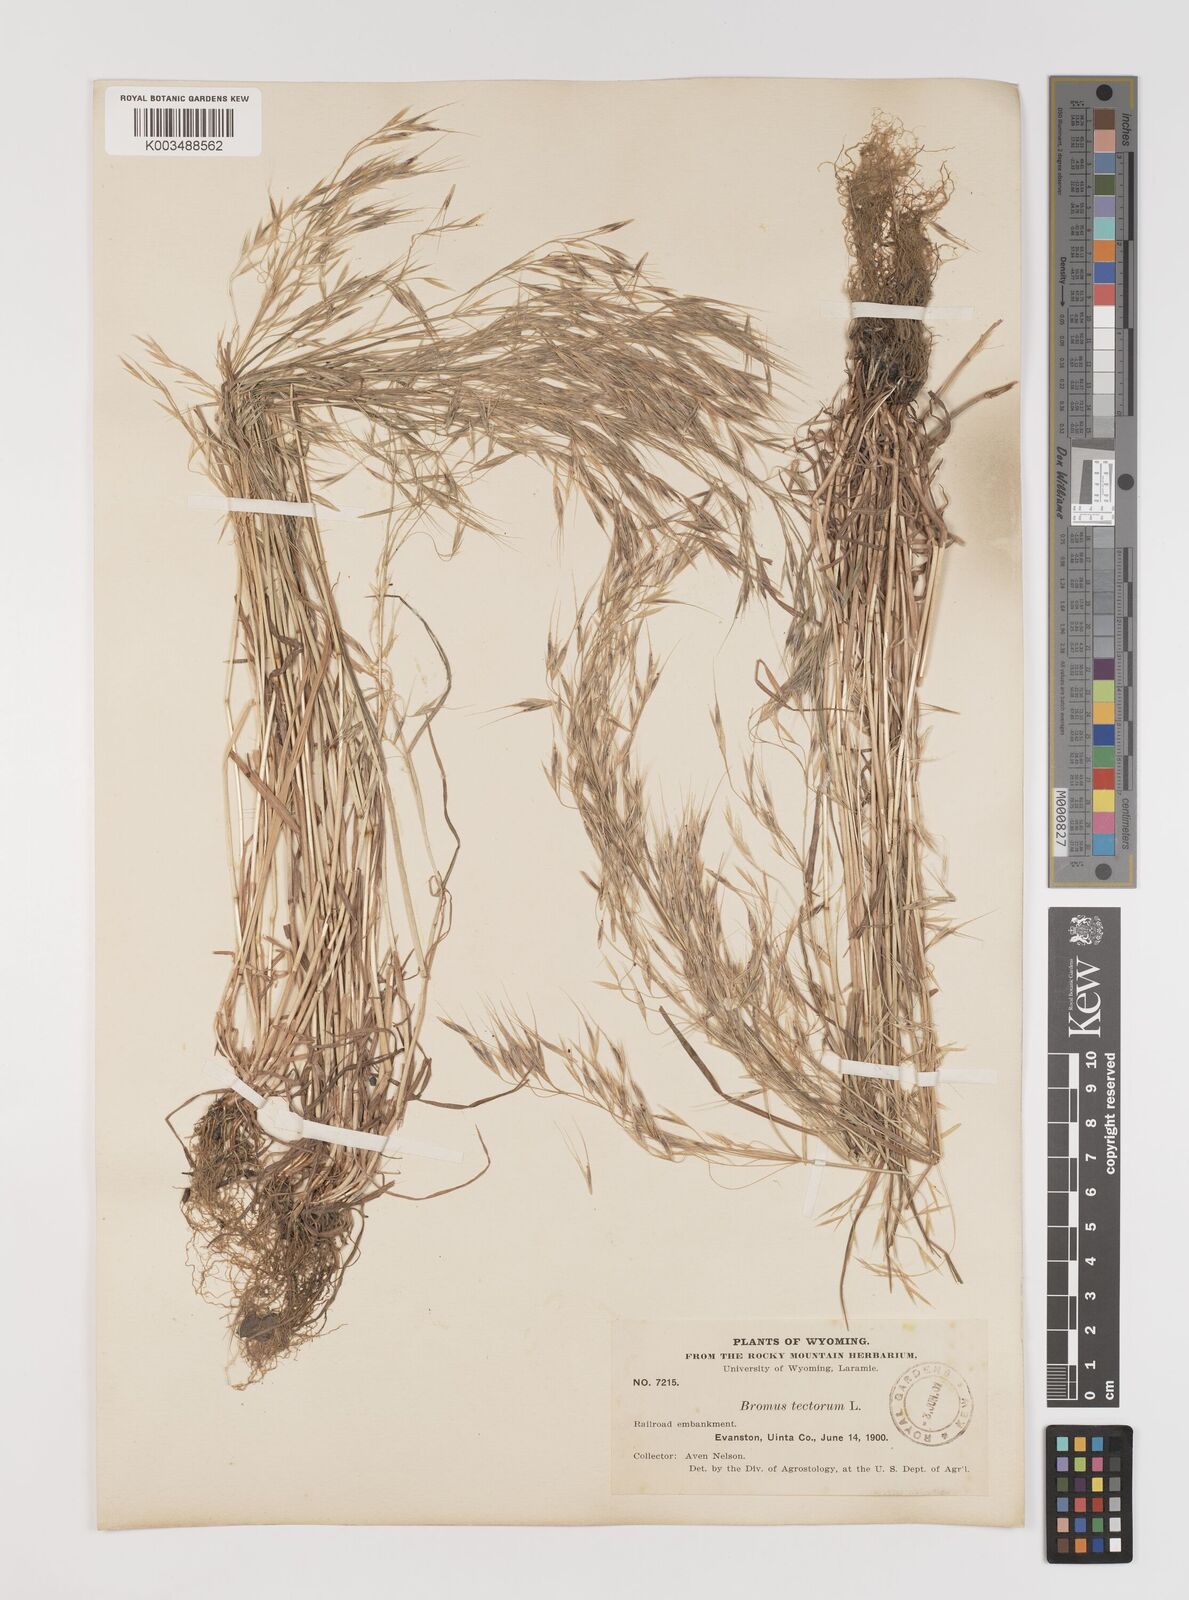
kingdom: Plantae
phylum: Tracheophyta
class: Liliopsida
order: Poales
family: Poaceae
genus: Bromus
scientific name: Bromus tectorum
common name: Cheatgrass
